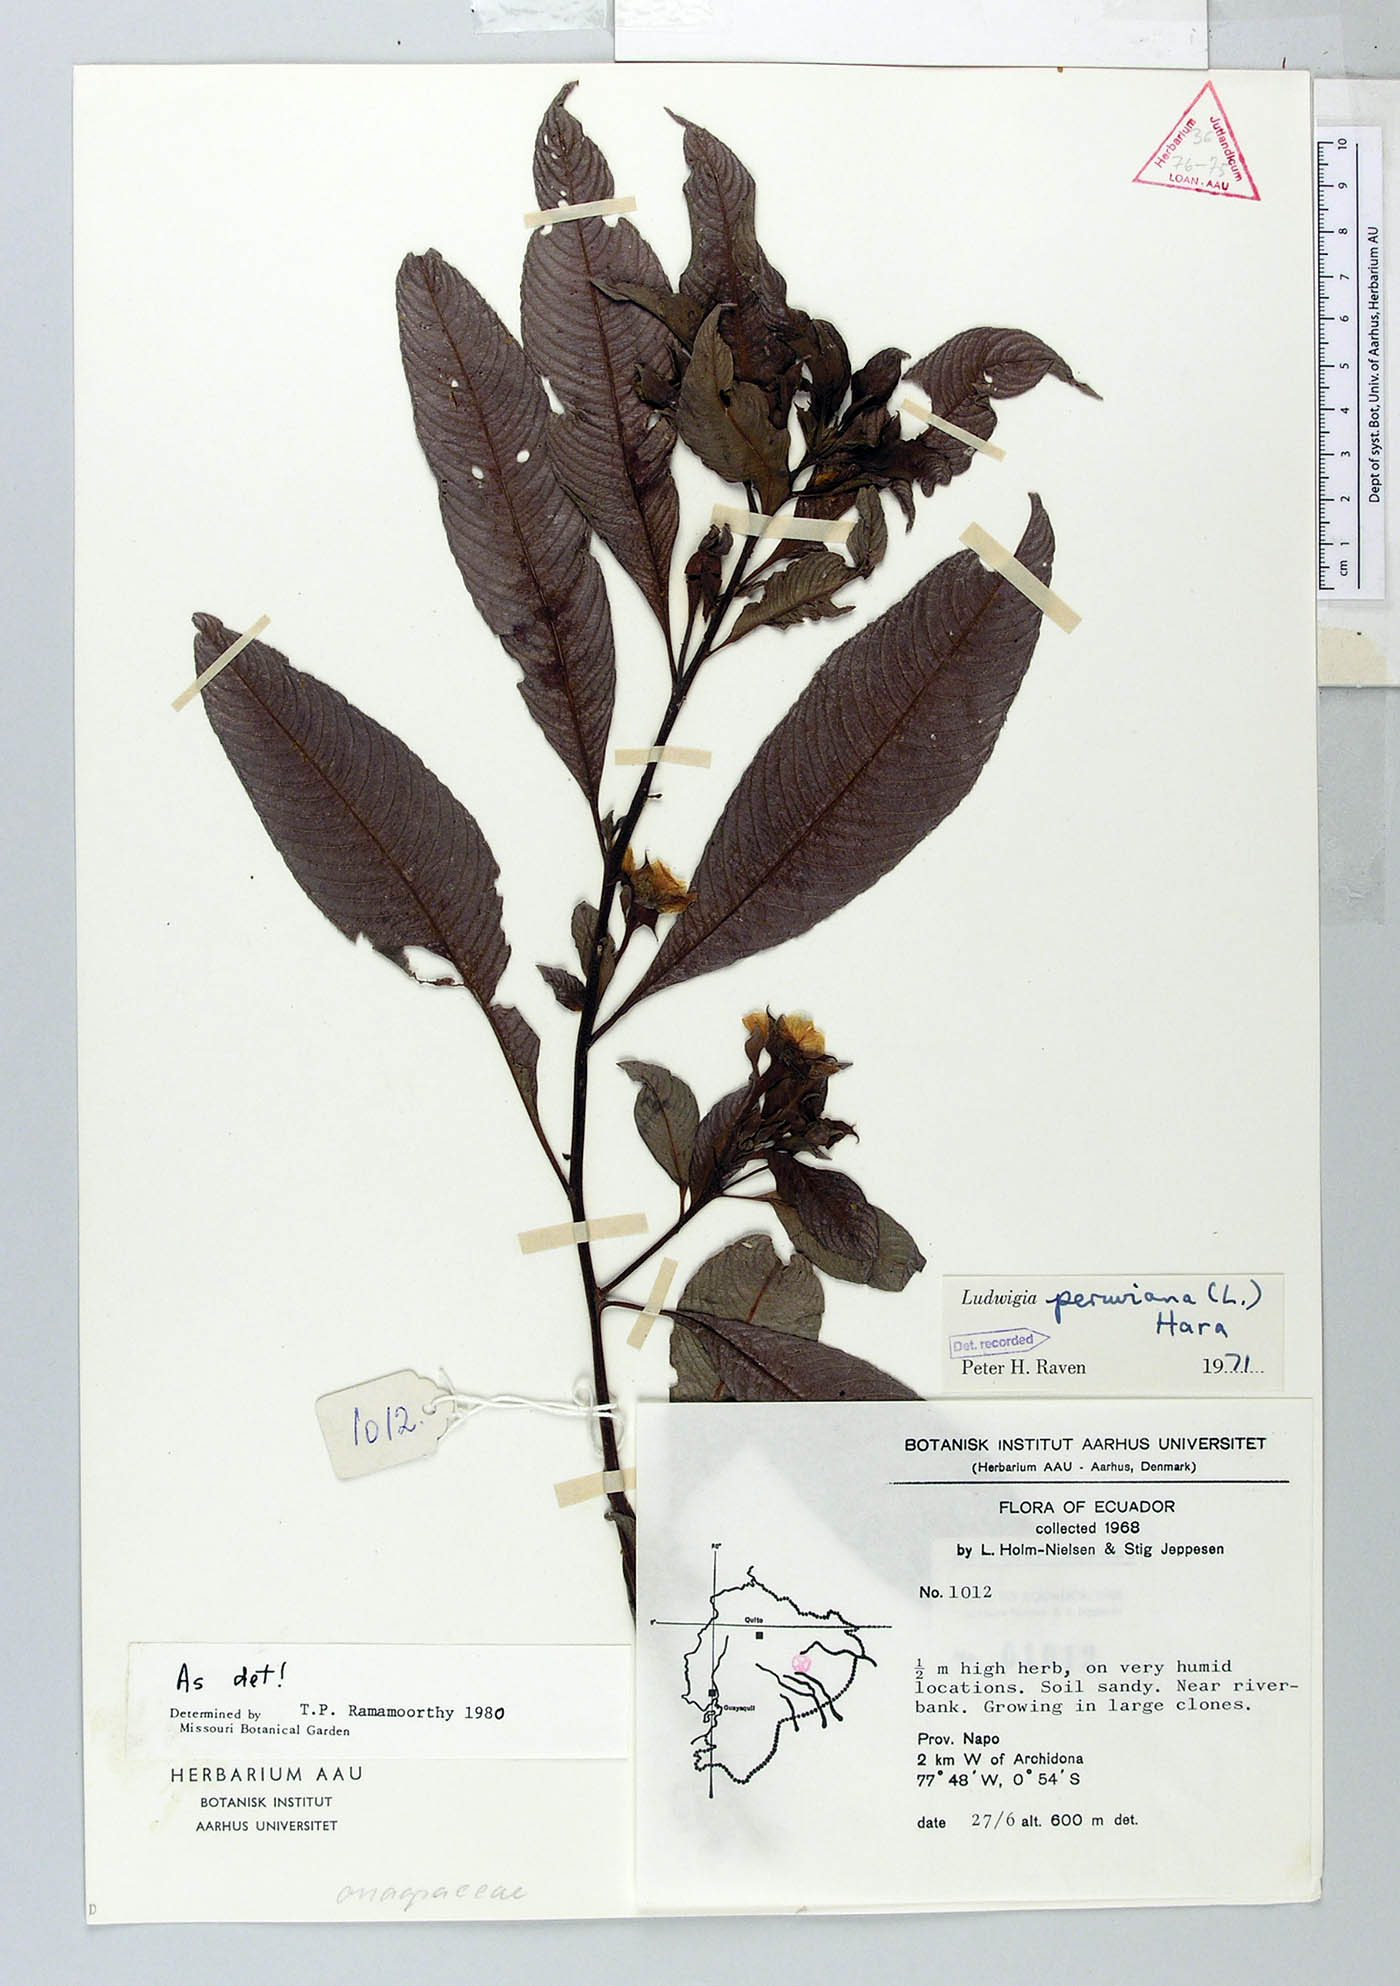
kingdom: Plantae
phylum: Tracheophyta
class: Magnoliopsida
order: Myrtales
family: Onagraceae
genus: Ludwigia
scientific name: Ludwigia peruviana
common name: Peruvian primrose-willow
